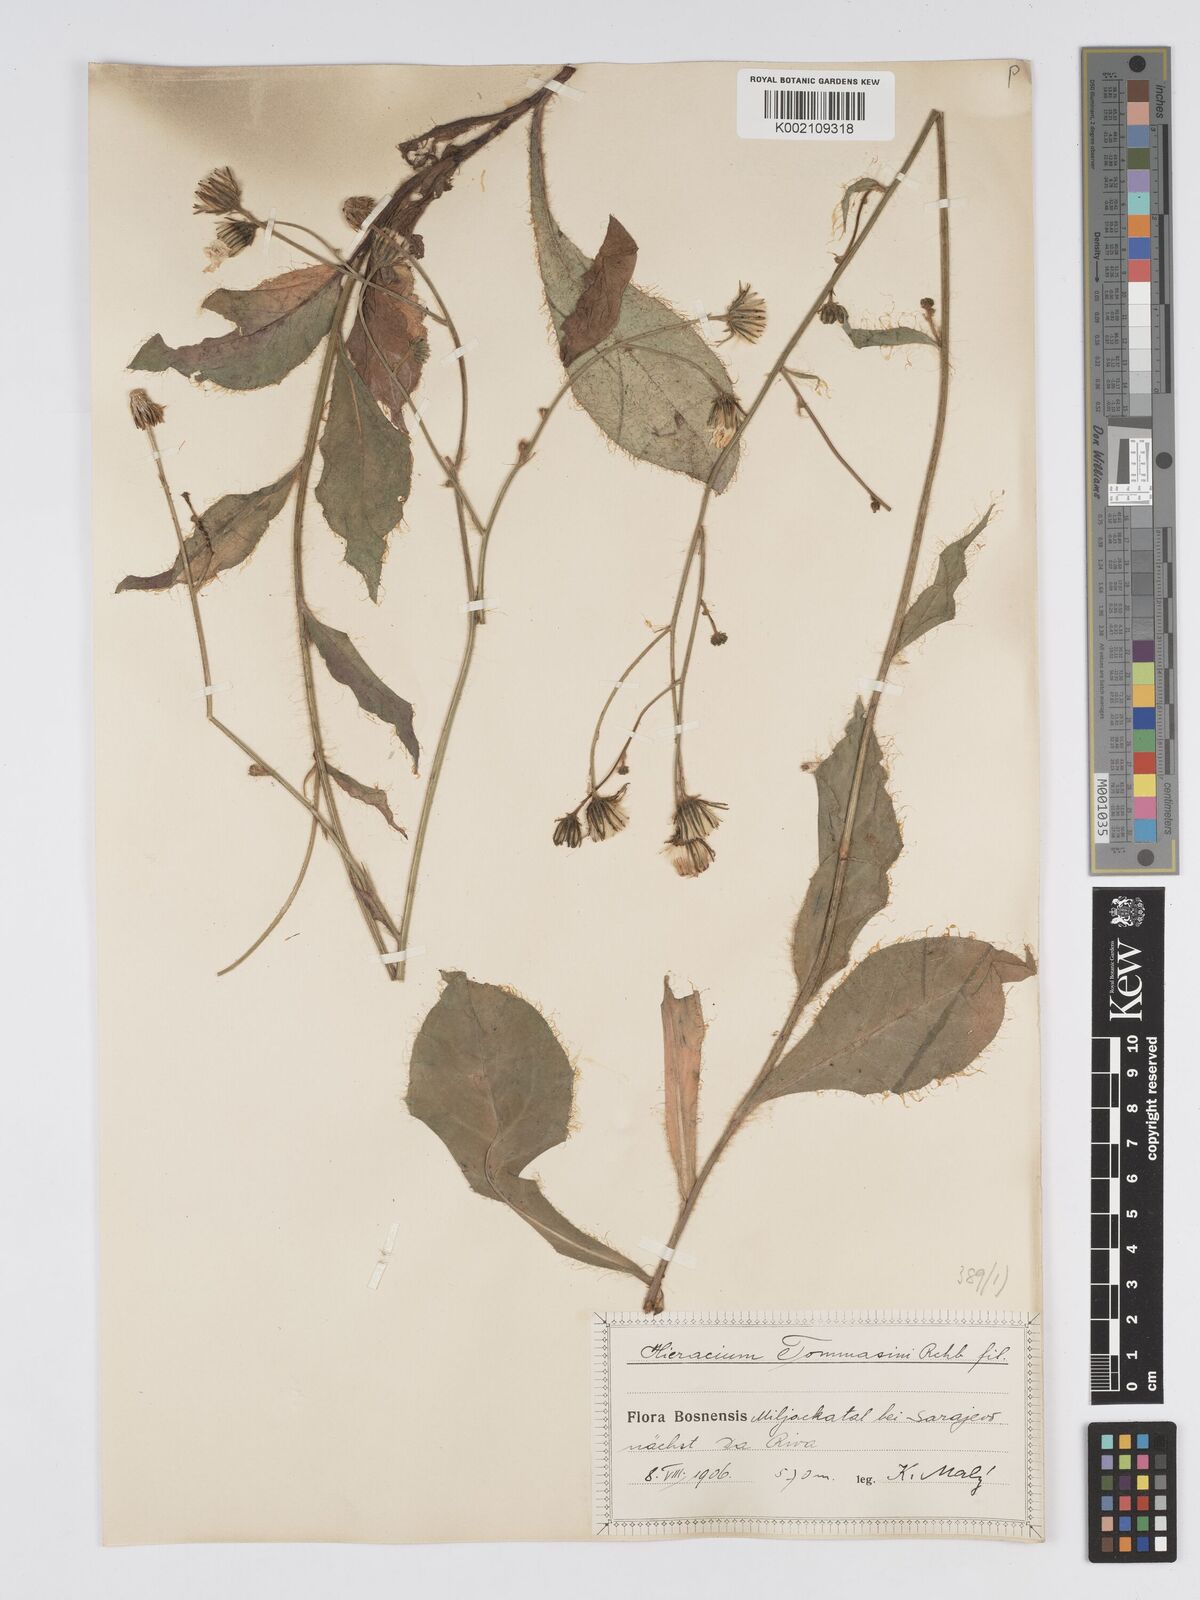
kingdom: Plantae
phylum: Tracheophyta
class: Magnoliopsida
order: Asterales
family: Asteraceae
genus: Hieracium
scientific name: Hieracium tommasinianum
